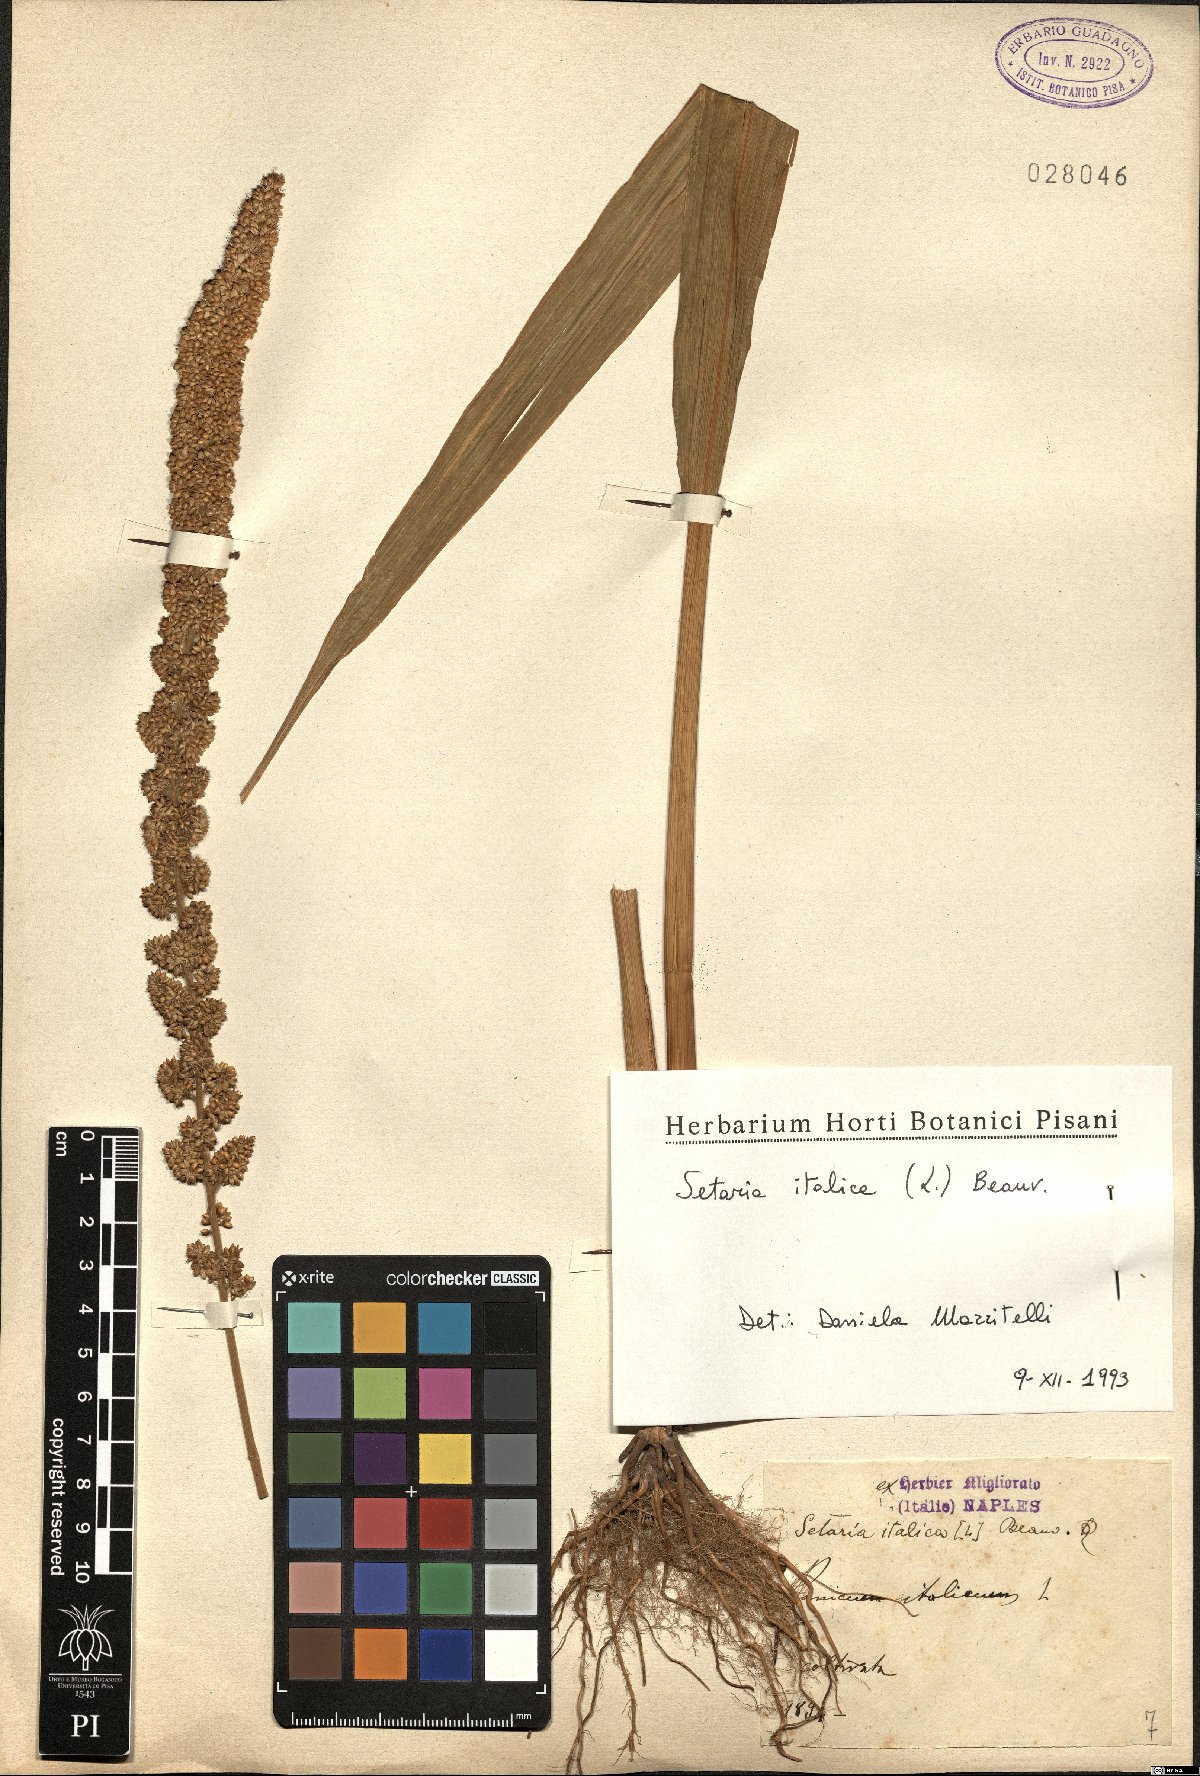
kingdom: Plantae
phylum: Tracheophyta
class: Liliopsida
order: Poales
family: Poaceae
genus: Setaria
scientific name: Setaria italica
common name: Foxtail bristle-grass
